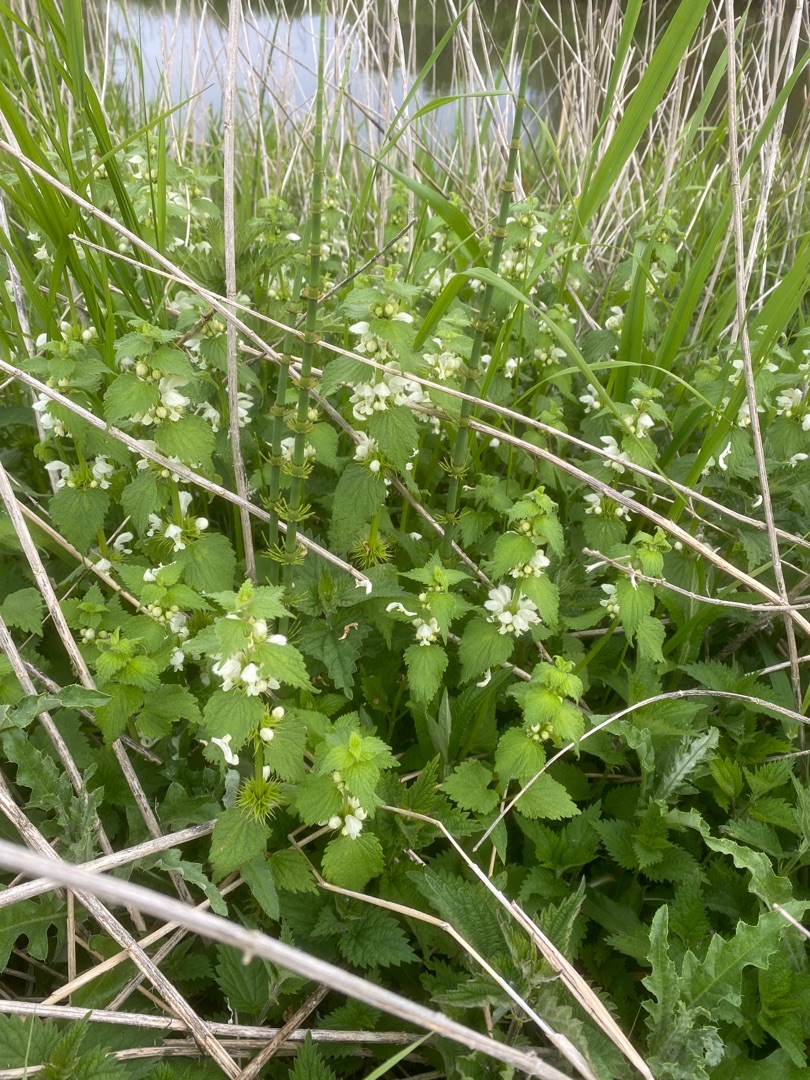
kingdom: Plantae
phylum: Tracheophyta
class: Magnoliopsida
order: Lamiales
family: Lamiaceae
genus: Lamium
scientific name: Lamium album
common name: Døvnælde
